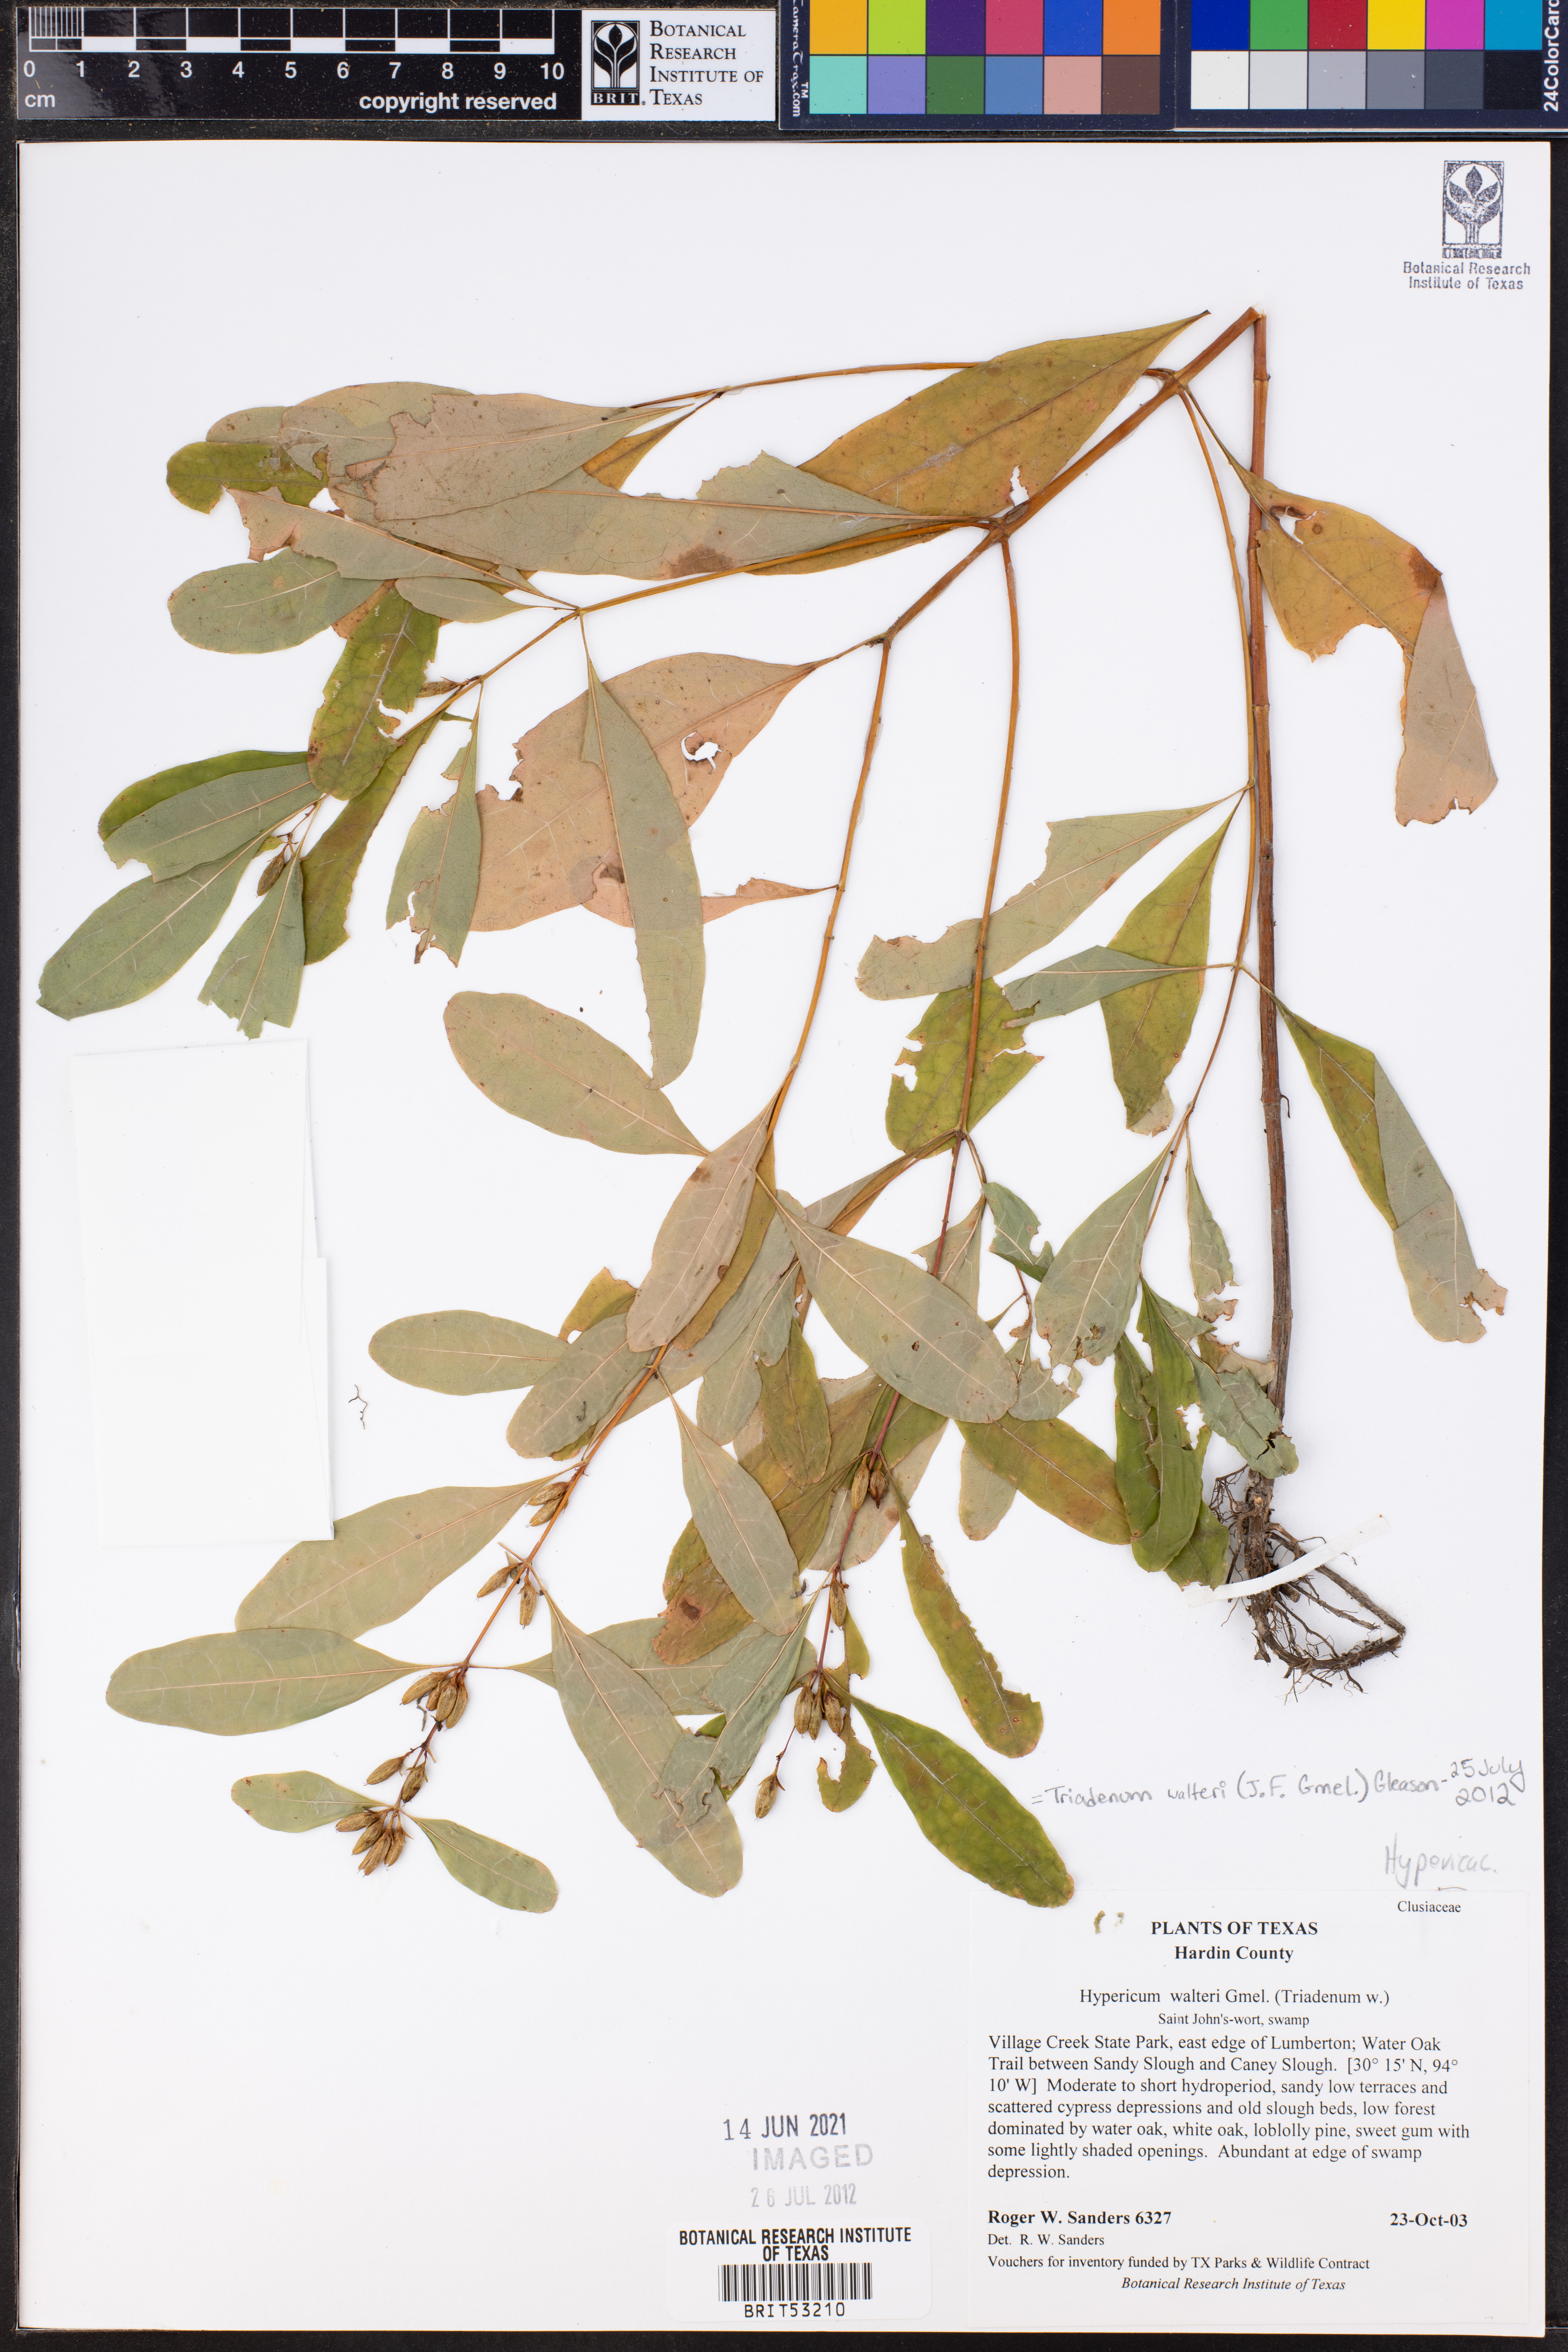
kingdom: Plantae
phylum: Tracheophyta
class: Magnoliopsida
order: Malpighiales
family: Hypericaceae
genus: Triadenum
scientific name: Triadenum walteri
